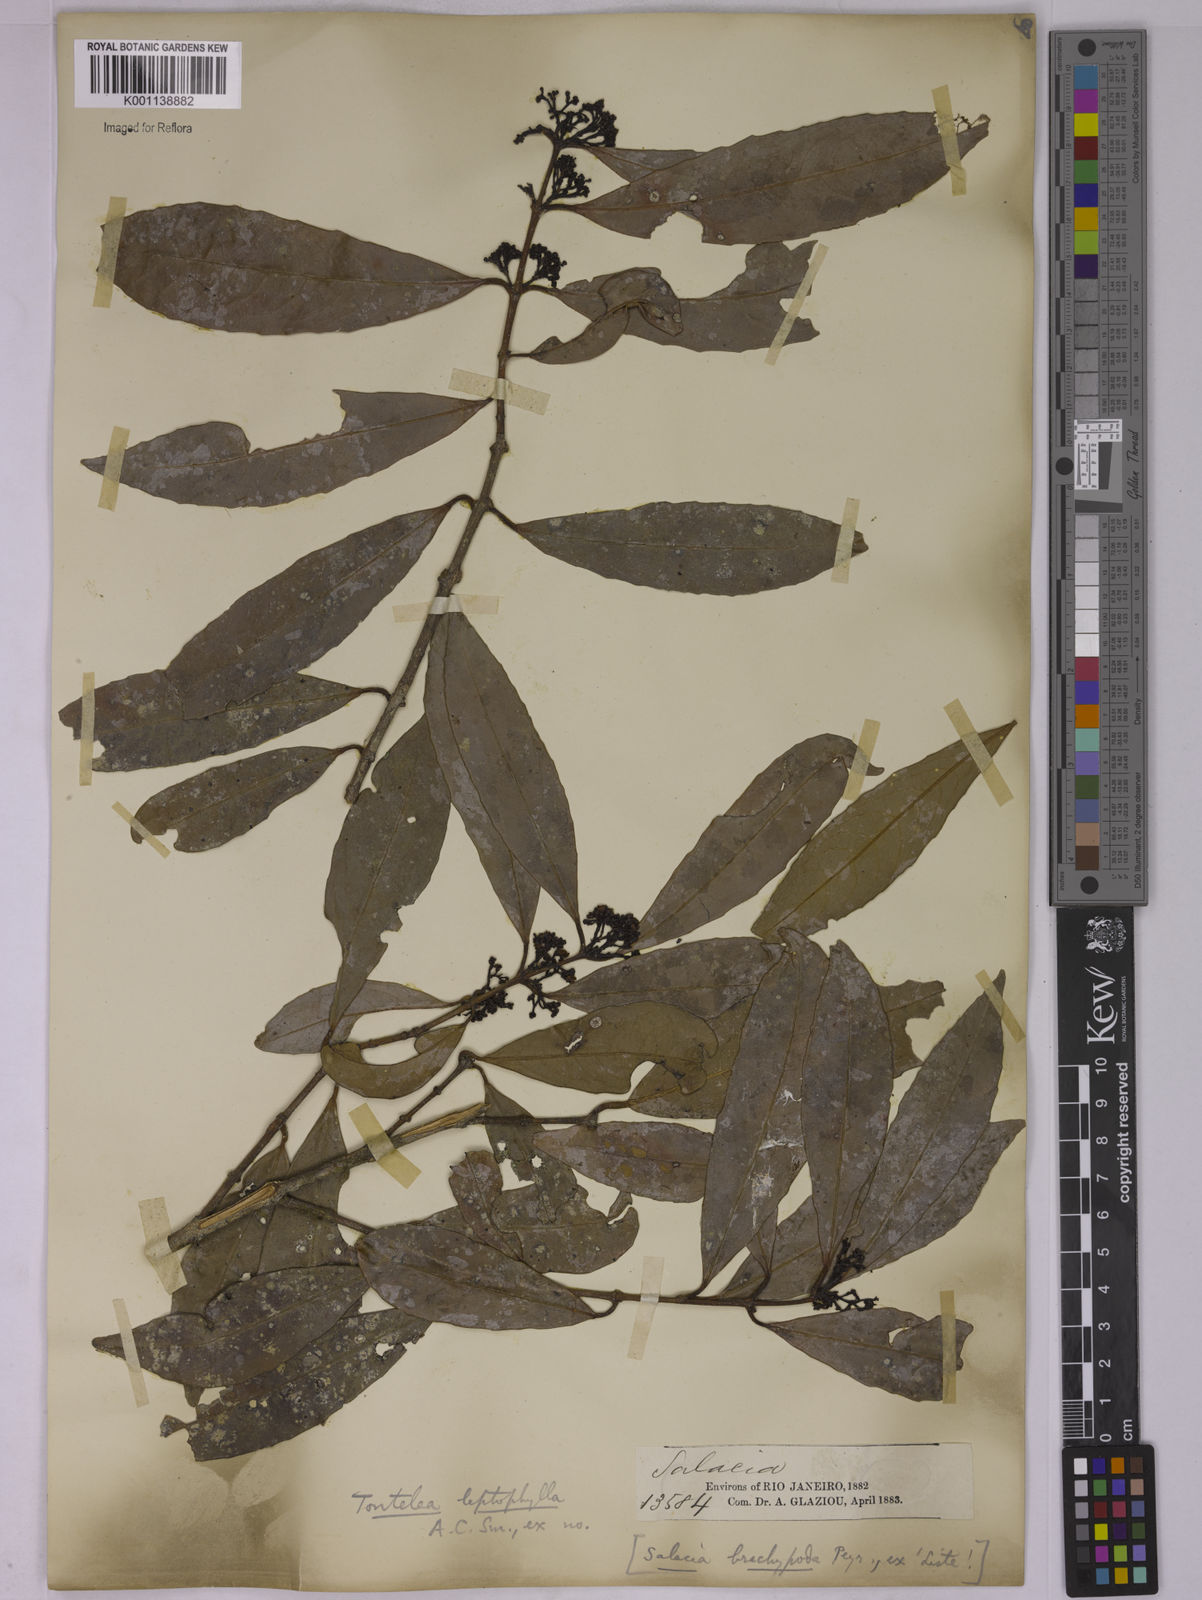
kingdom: Plantae
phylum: Tracheophyta
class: Magnoliopsida
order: Celastrales
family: Celastraceae
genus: Tontelea
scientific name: Tontelea leptophylla
